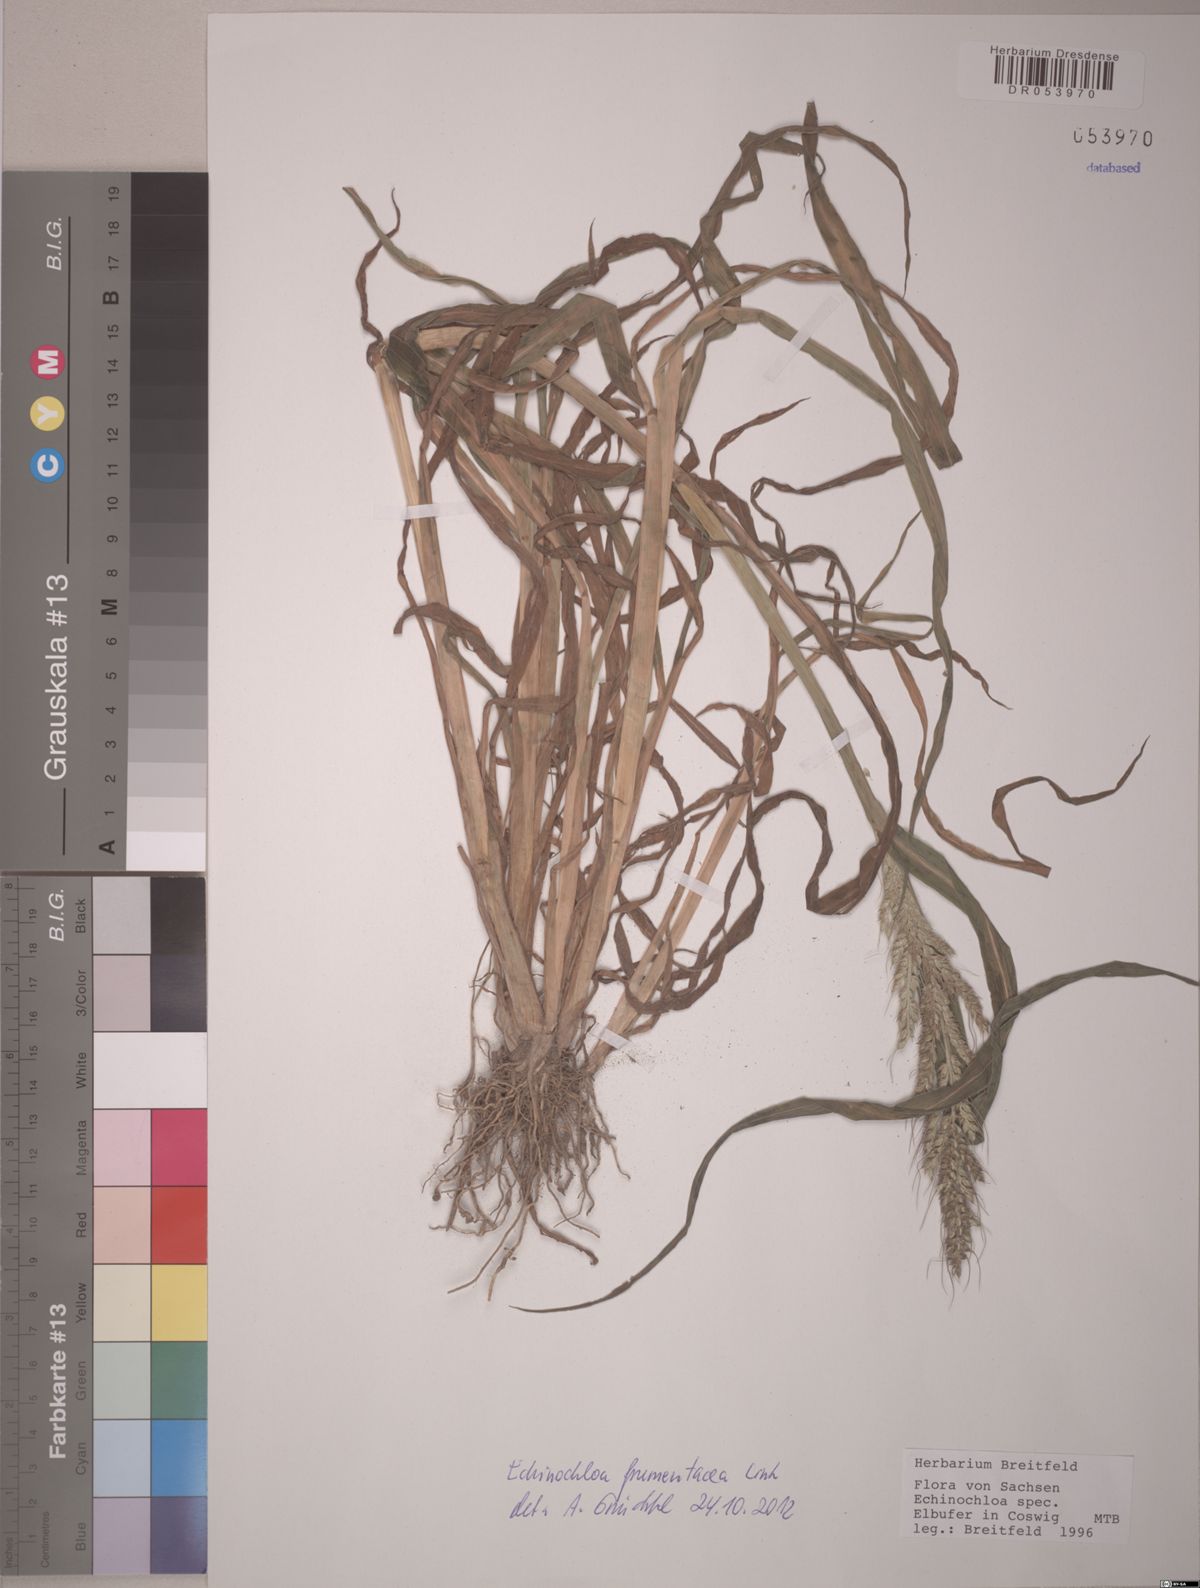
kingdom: Plantae
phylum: Tracheophyta
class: Liliopsida
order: Poales
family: Poaceae
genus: Echinochloa
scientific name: Echinochloa frumentacea
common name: Billion-dollar grass
